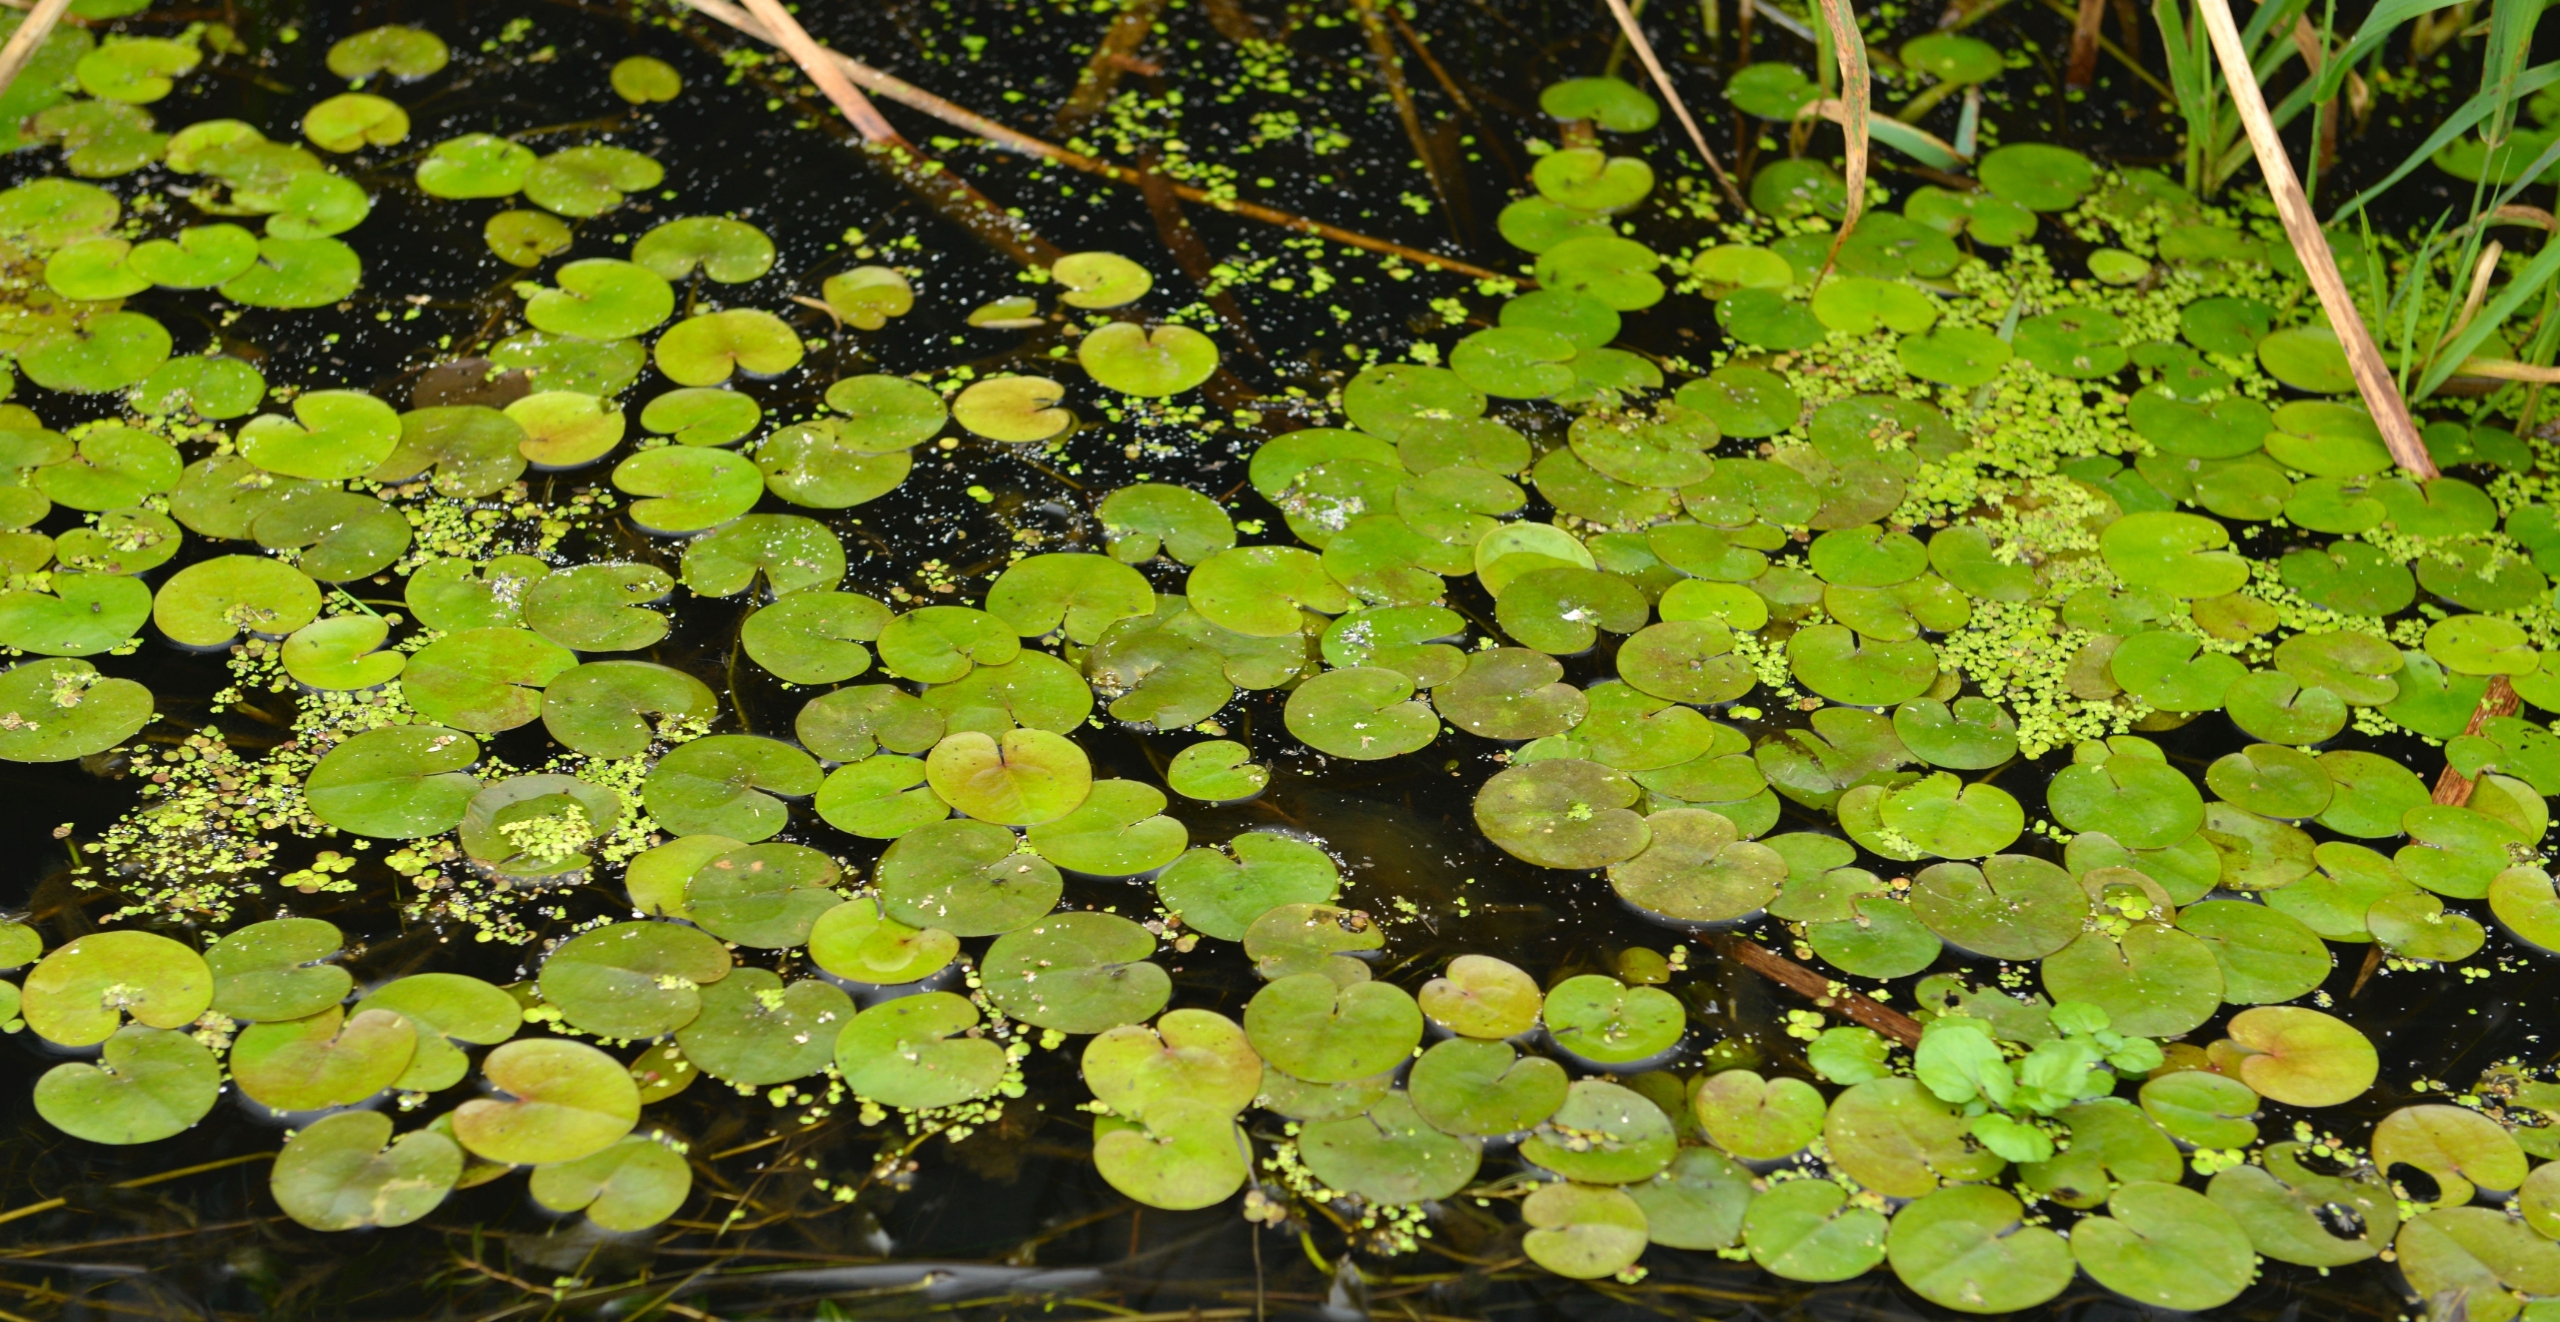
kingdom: Plantae
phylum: Tracheophyta
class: Liliopsida
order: Alismatales
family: Hydrocharitaceae
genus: Hydrocharis
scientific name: Hydrocharis morsus-ranae
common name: Frøbid
